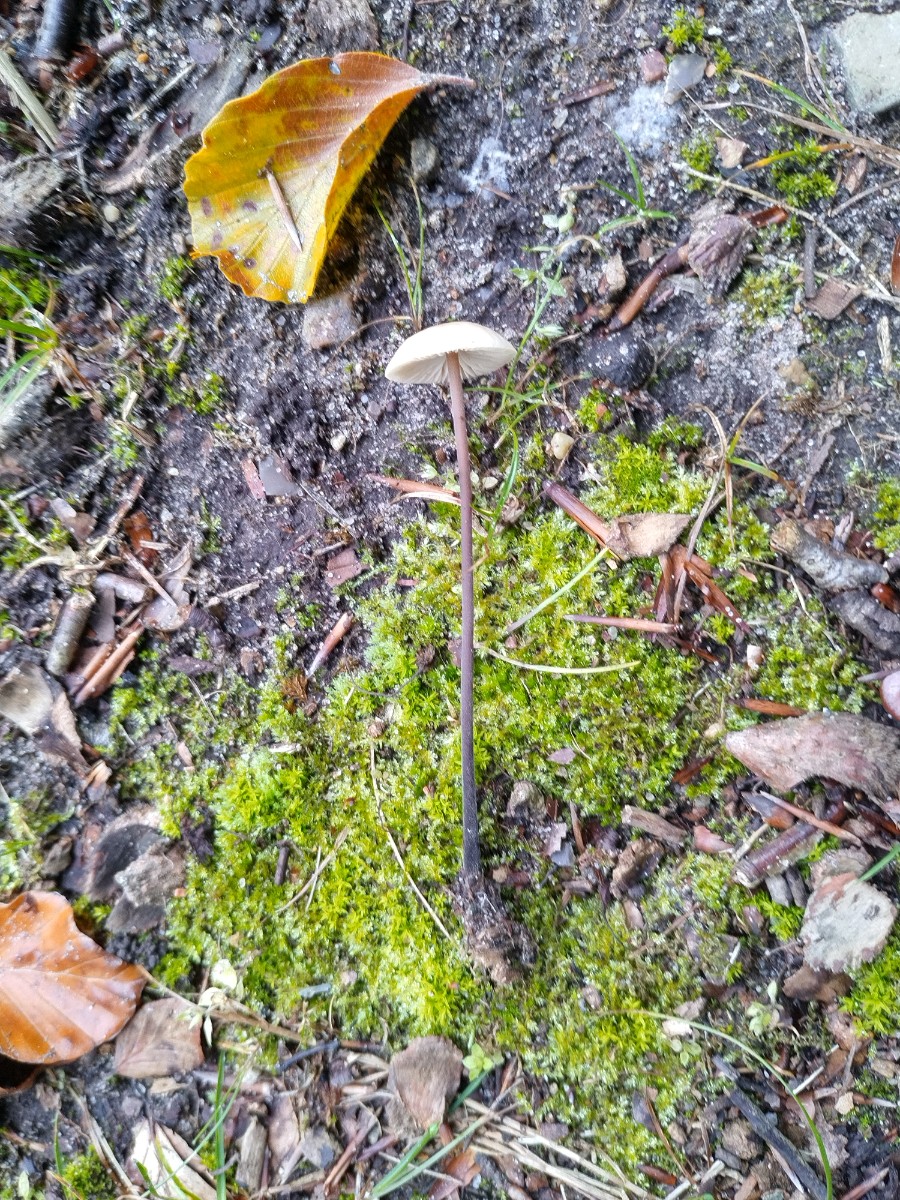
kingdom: Fungi
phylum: Basidiomycota
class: Agaricomycetes
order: Agaricales
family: Omphalotaceae
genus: Mycetinis
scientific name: Mycetinis alliaceus
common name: stor løghat
